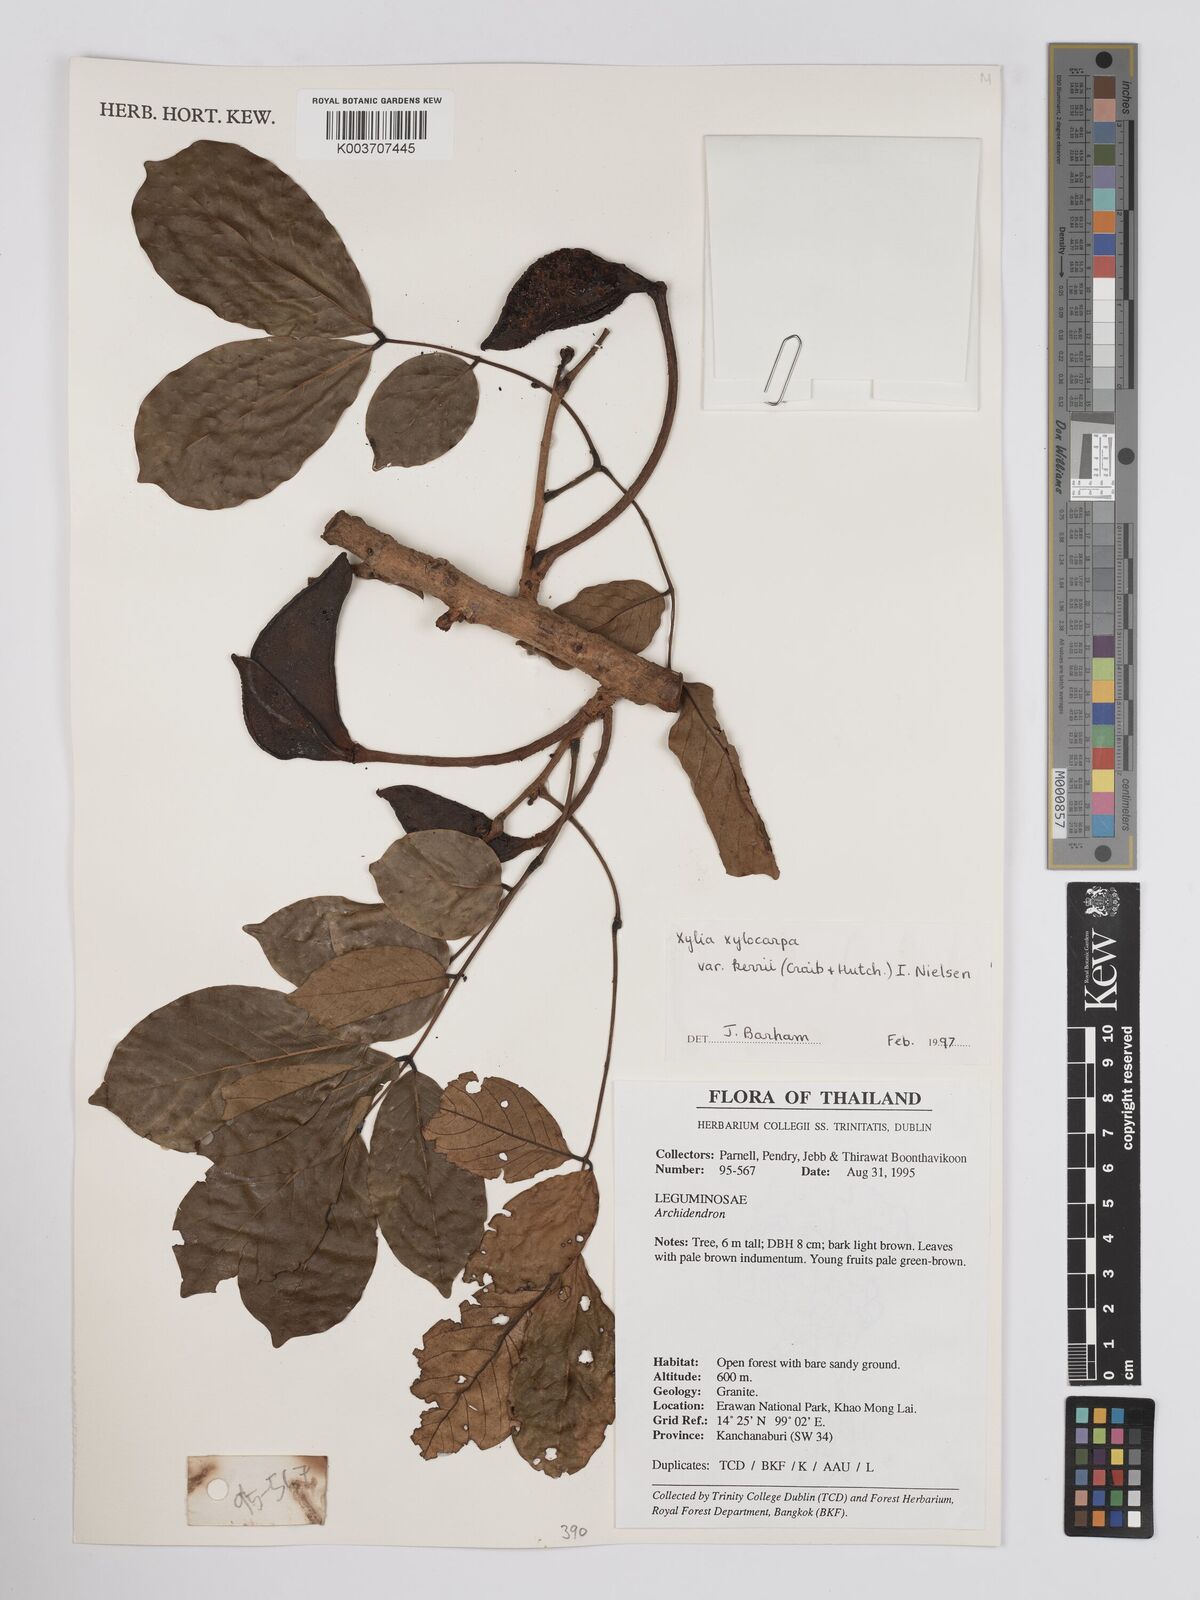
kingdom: Plantae
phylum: Tracheophyta
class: Magnoliopsida
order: Fabales
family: Fabaceae
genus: Xylia
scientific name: Xylia xylocarpa
